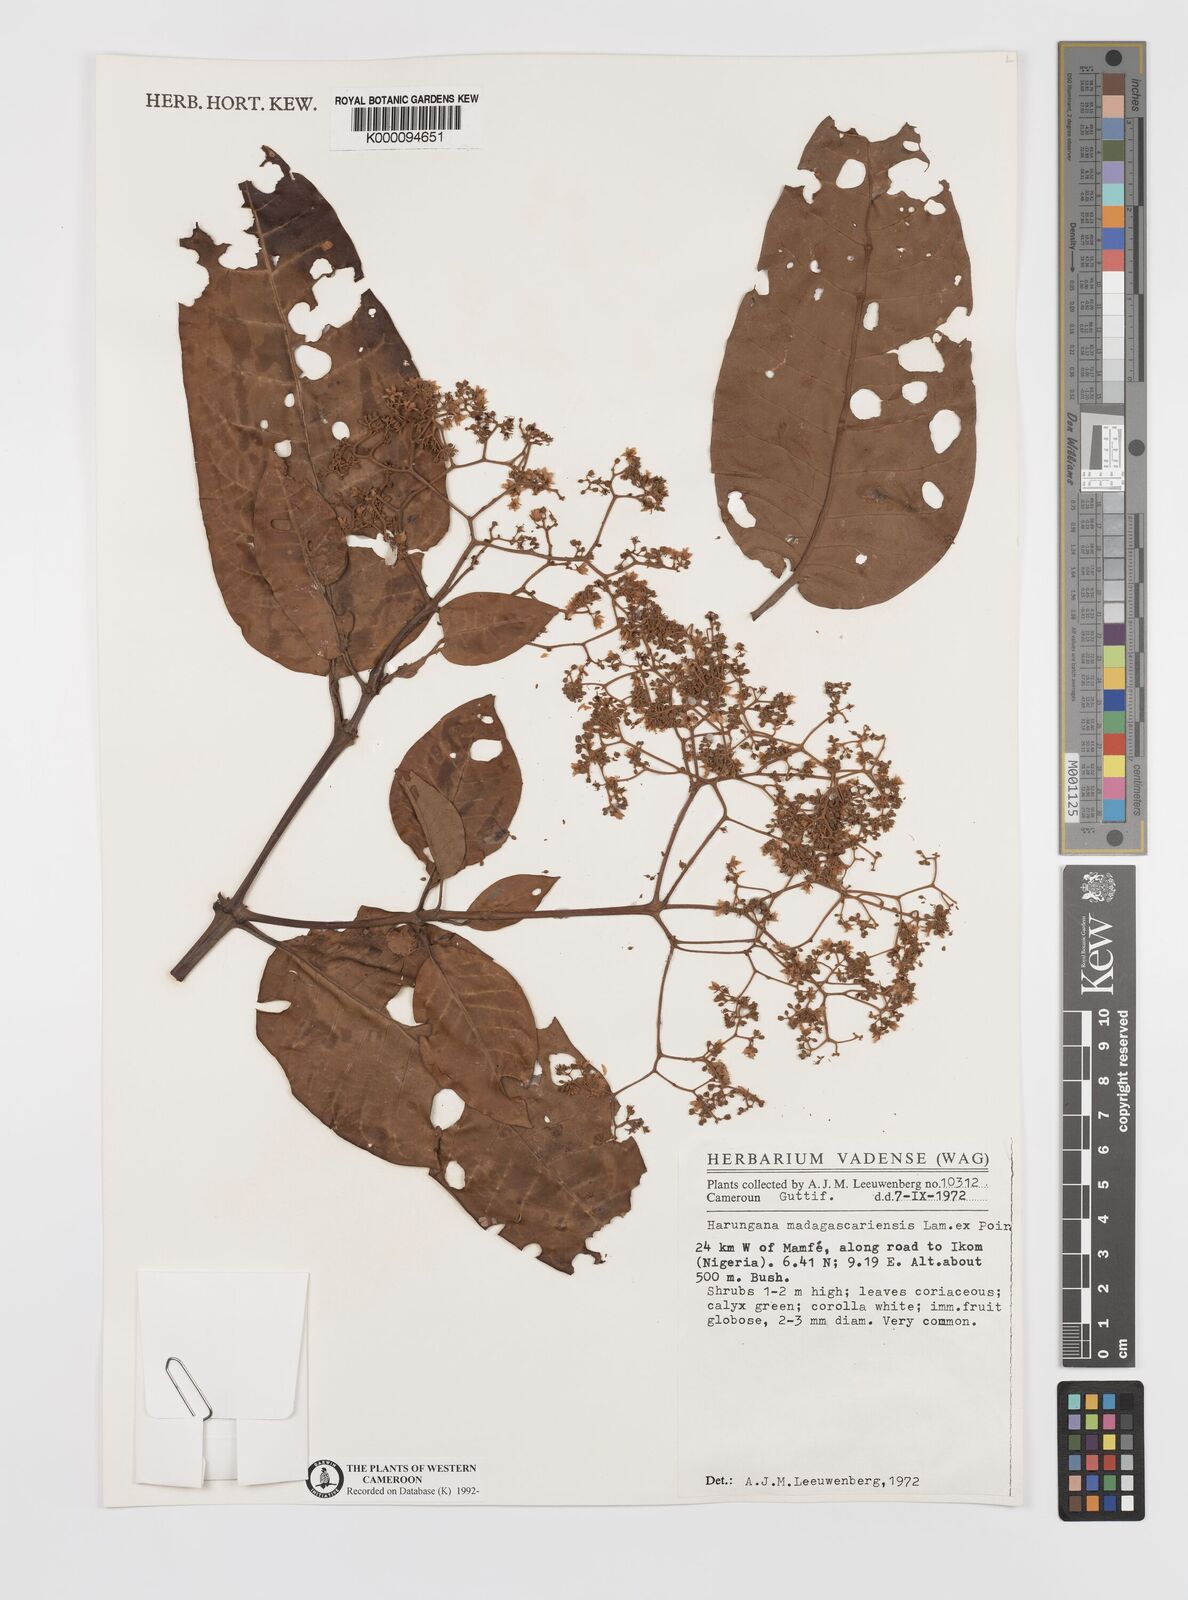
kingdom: Plantae
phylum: Tracheophyta
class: Magnoliopsida
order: Malpighiales
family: Hypericaceae
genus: Harungana
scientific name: Harungana madagascariensis
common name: Orange milktree
